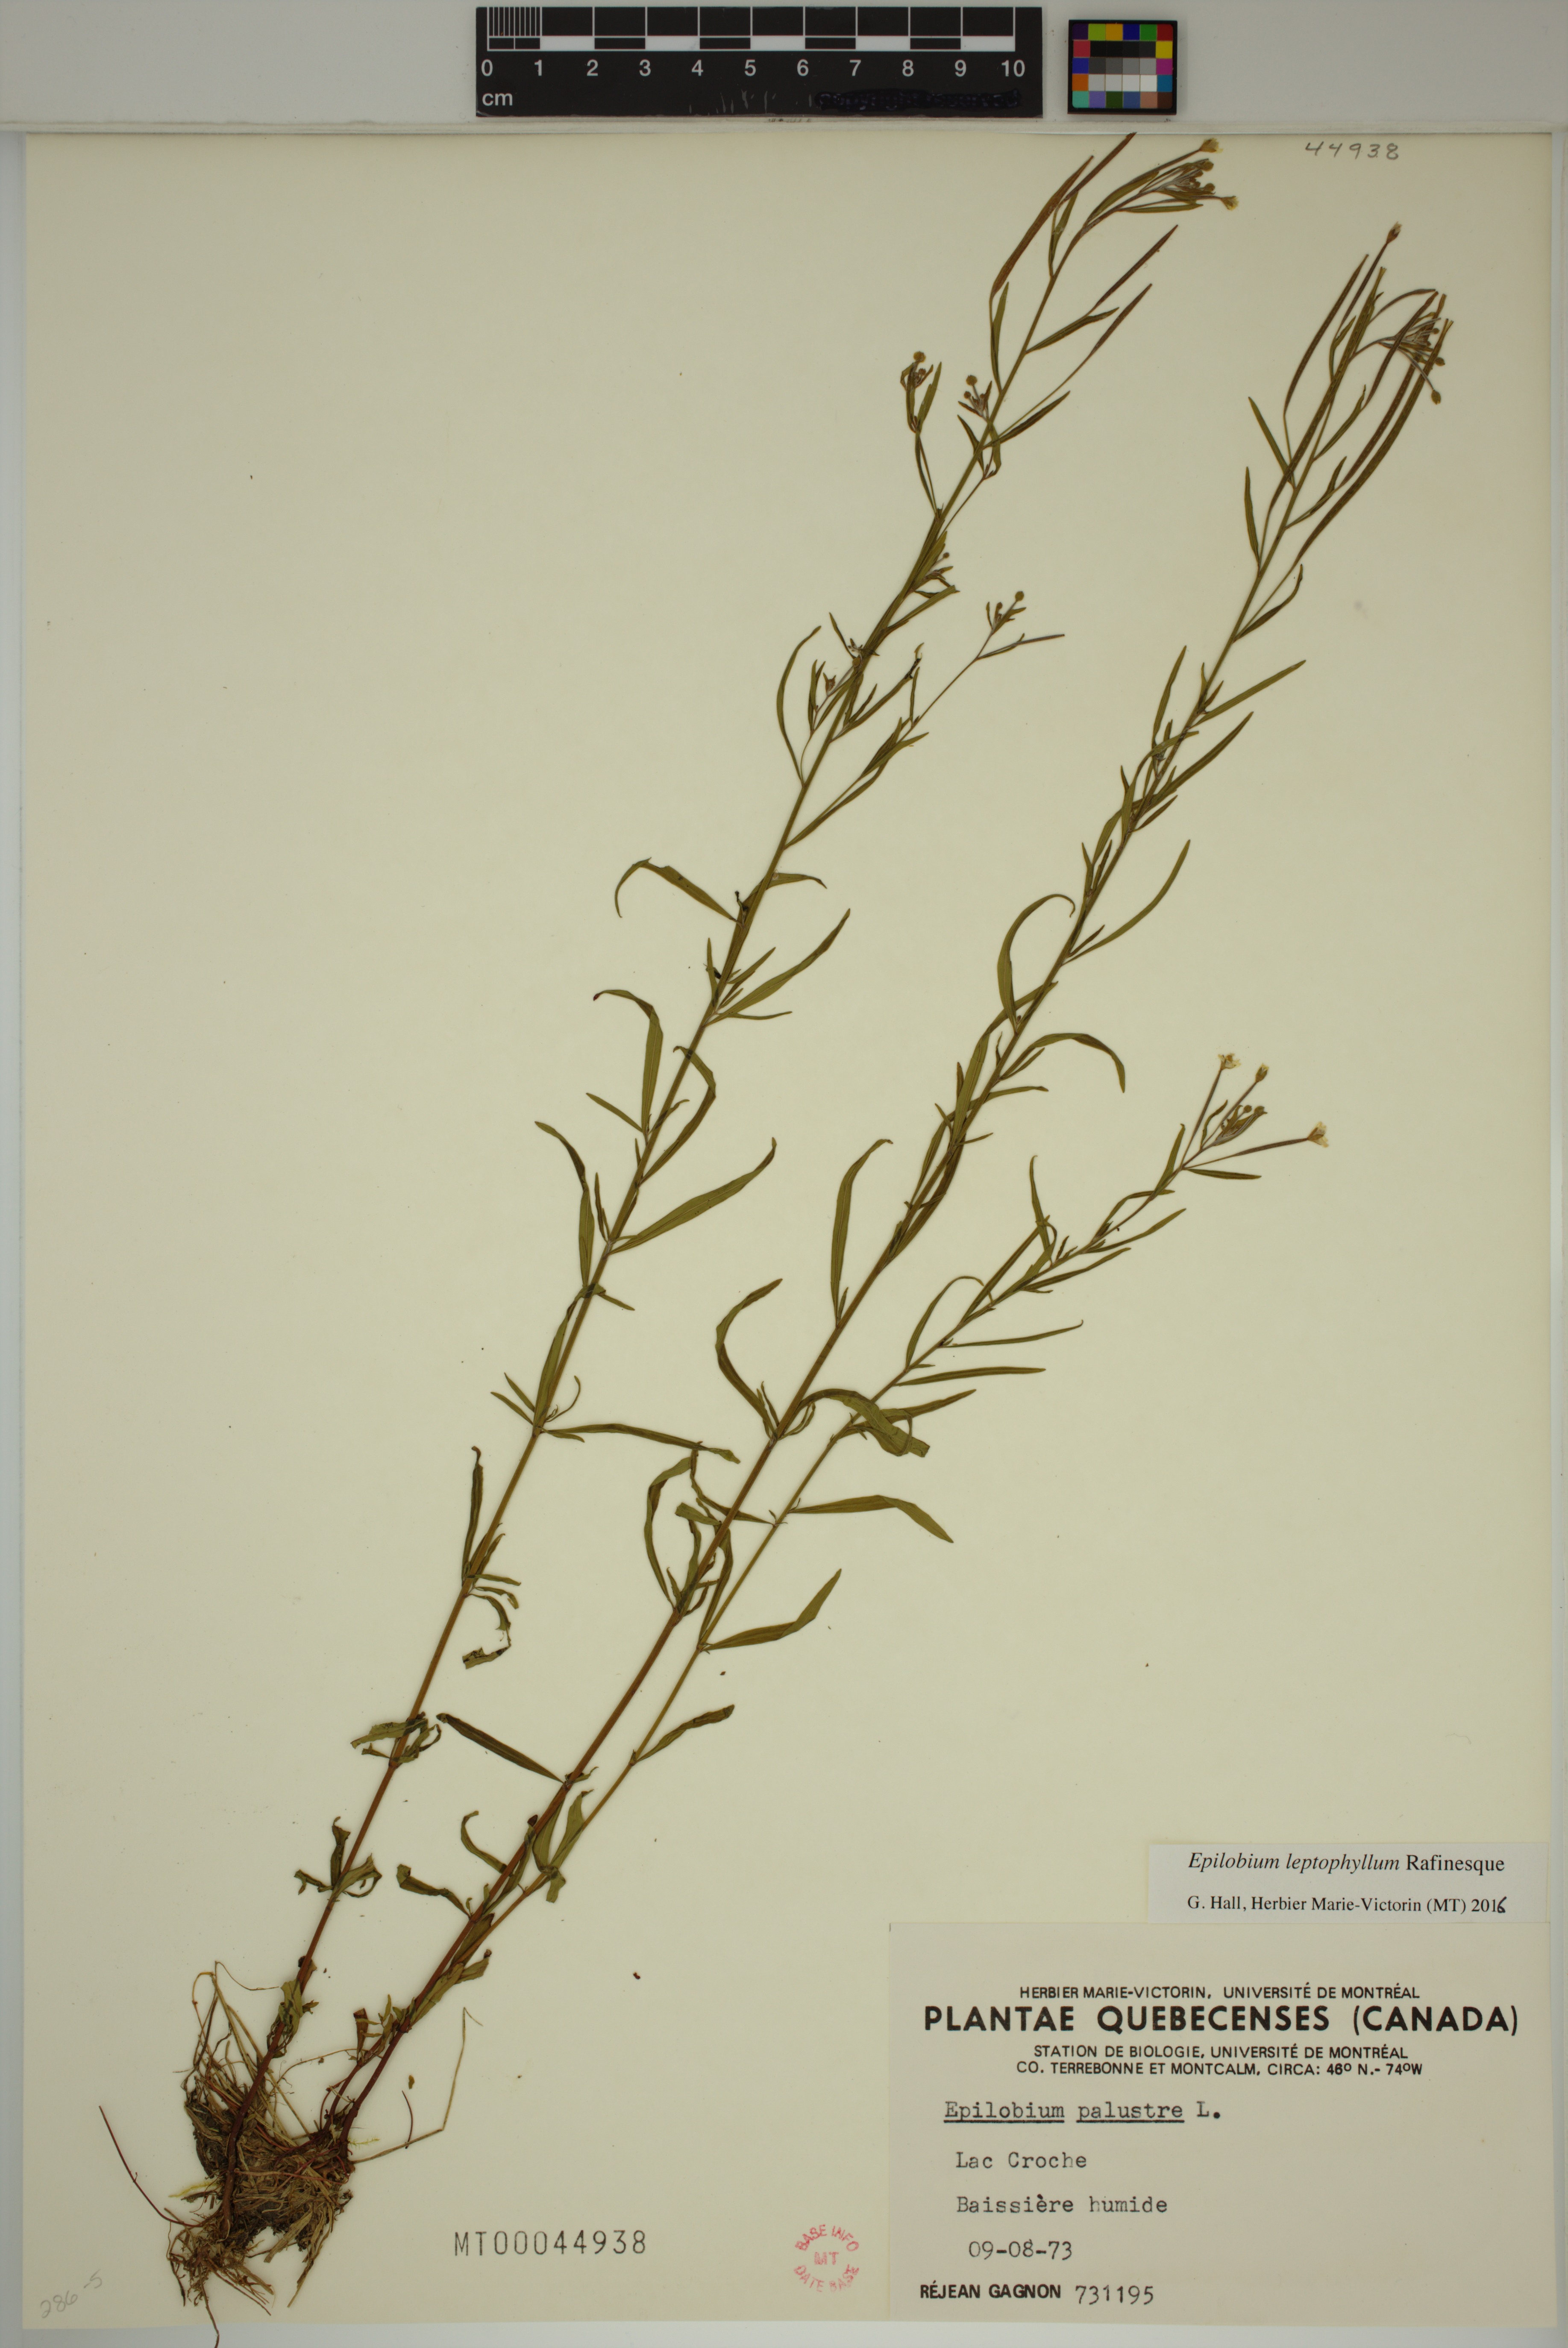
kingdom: Plantae
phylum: Tracheophyta
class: Magnoliopsida
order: Myrtales
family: Onagraceae
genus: Epilobium
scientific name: Epilobium leptophyllum
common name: Bog willowherb
